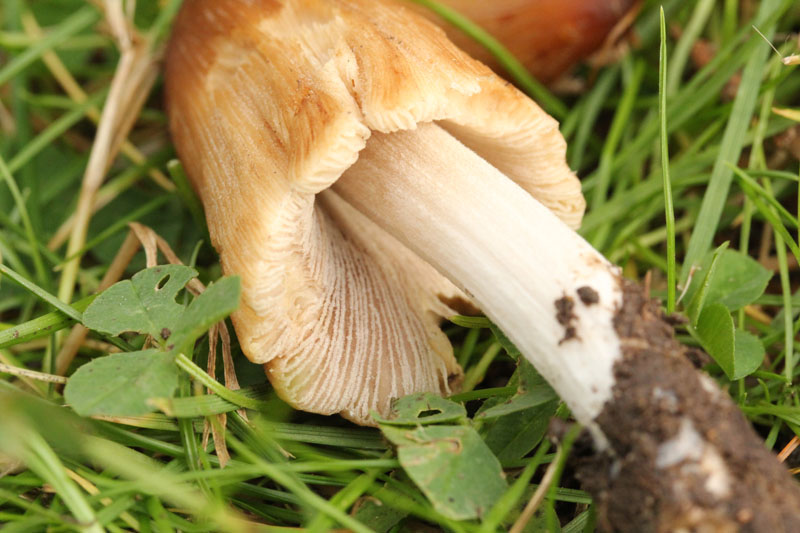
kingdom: Fungi
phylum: Basidiomycota
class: Agaricomycetes
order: Agaricales
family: Psathyrellaceae
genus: Coprinellus
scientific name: Coprinellus micaceus
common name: glimmer-blækhat
